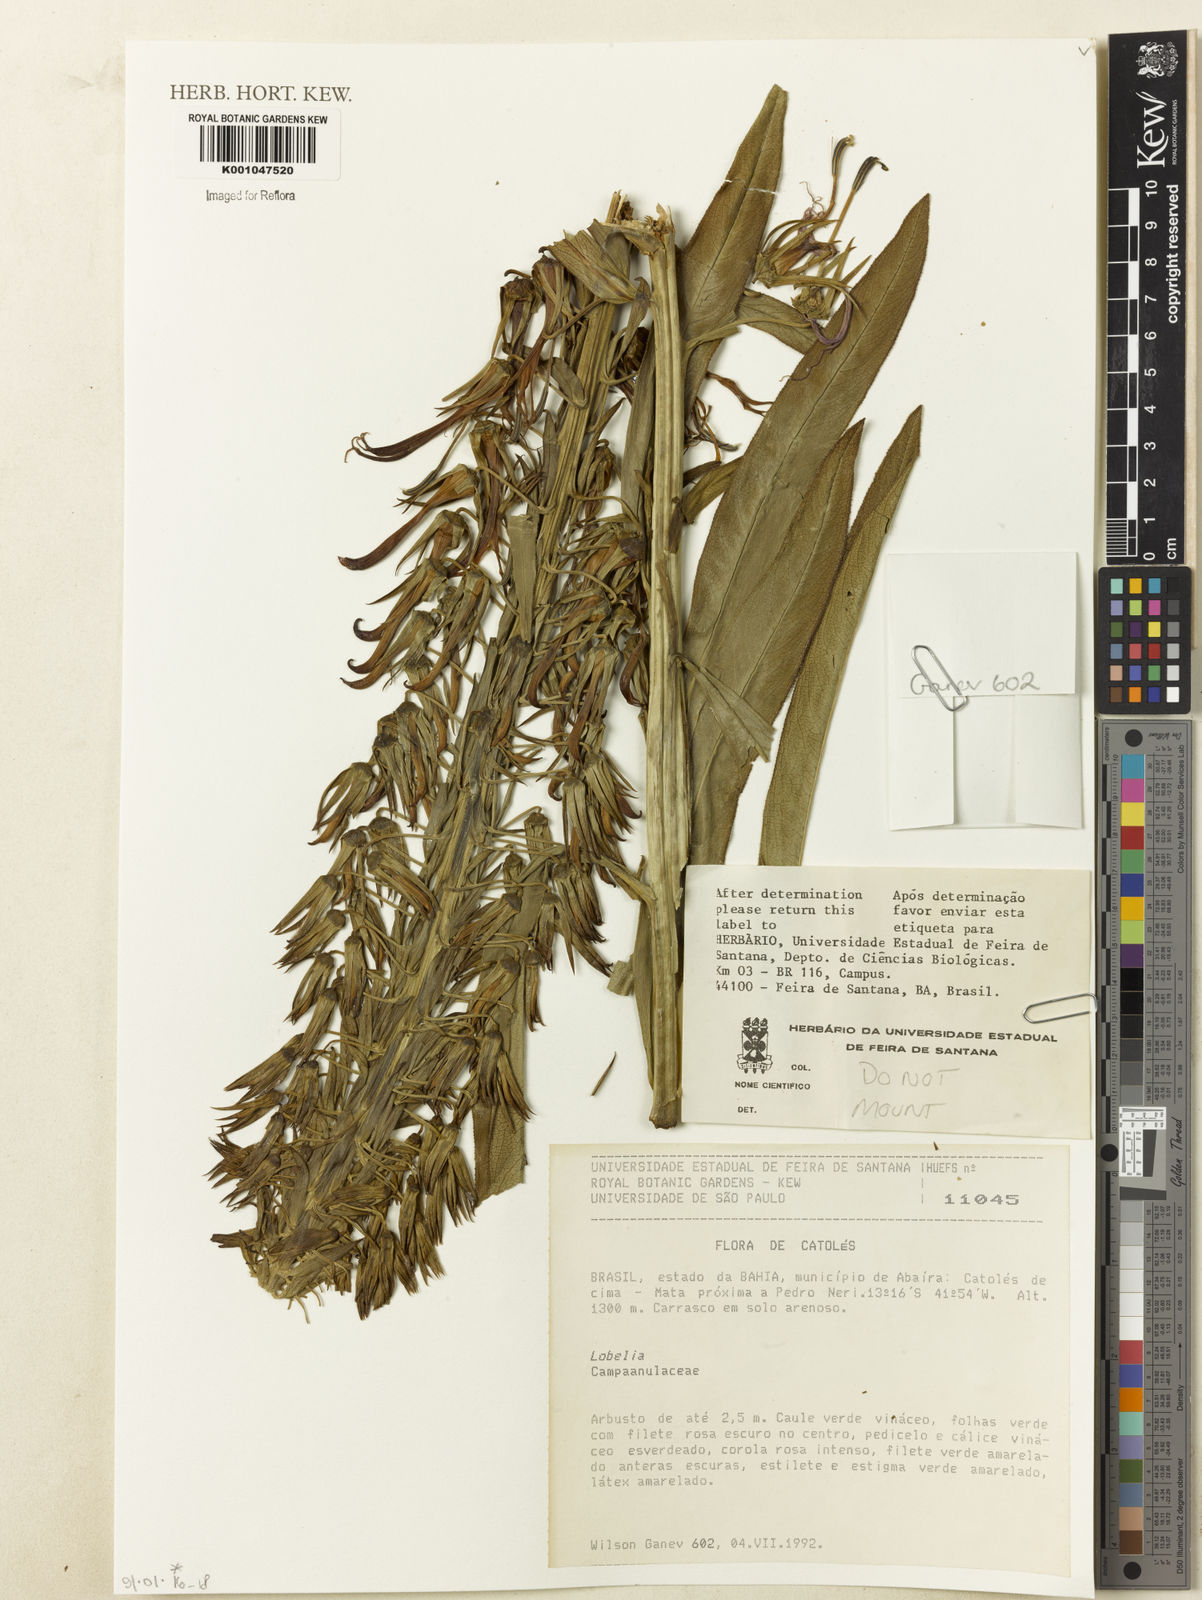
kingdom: Plantae
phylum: Tracheophyta
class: Magnoliopsida
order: Asterales
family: Campanulaceae
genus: Lobelia
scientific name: Lobelia
